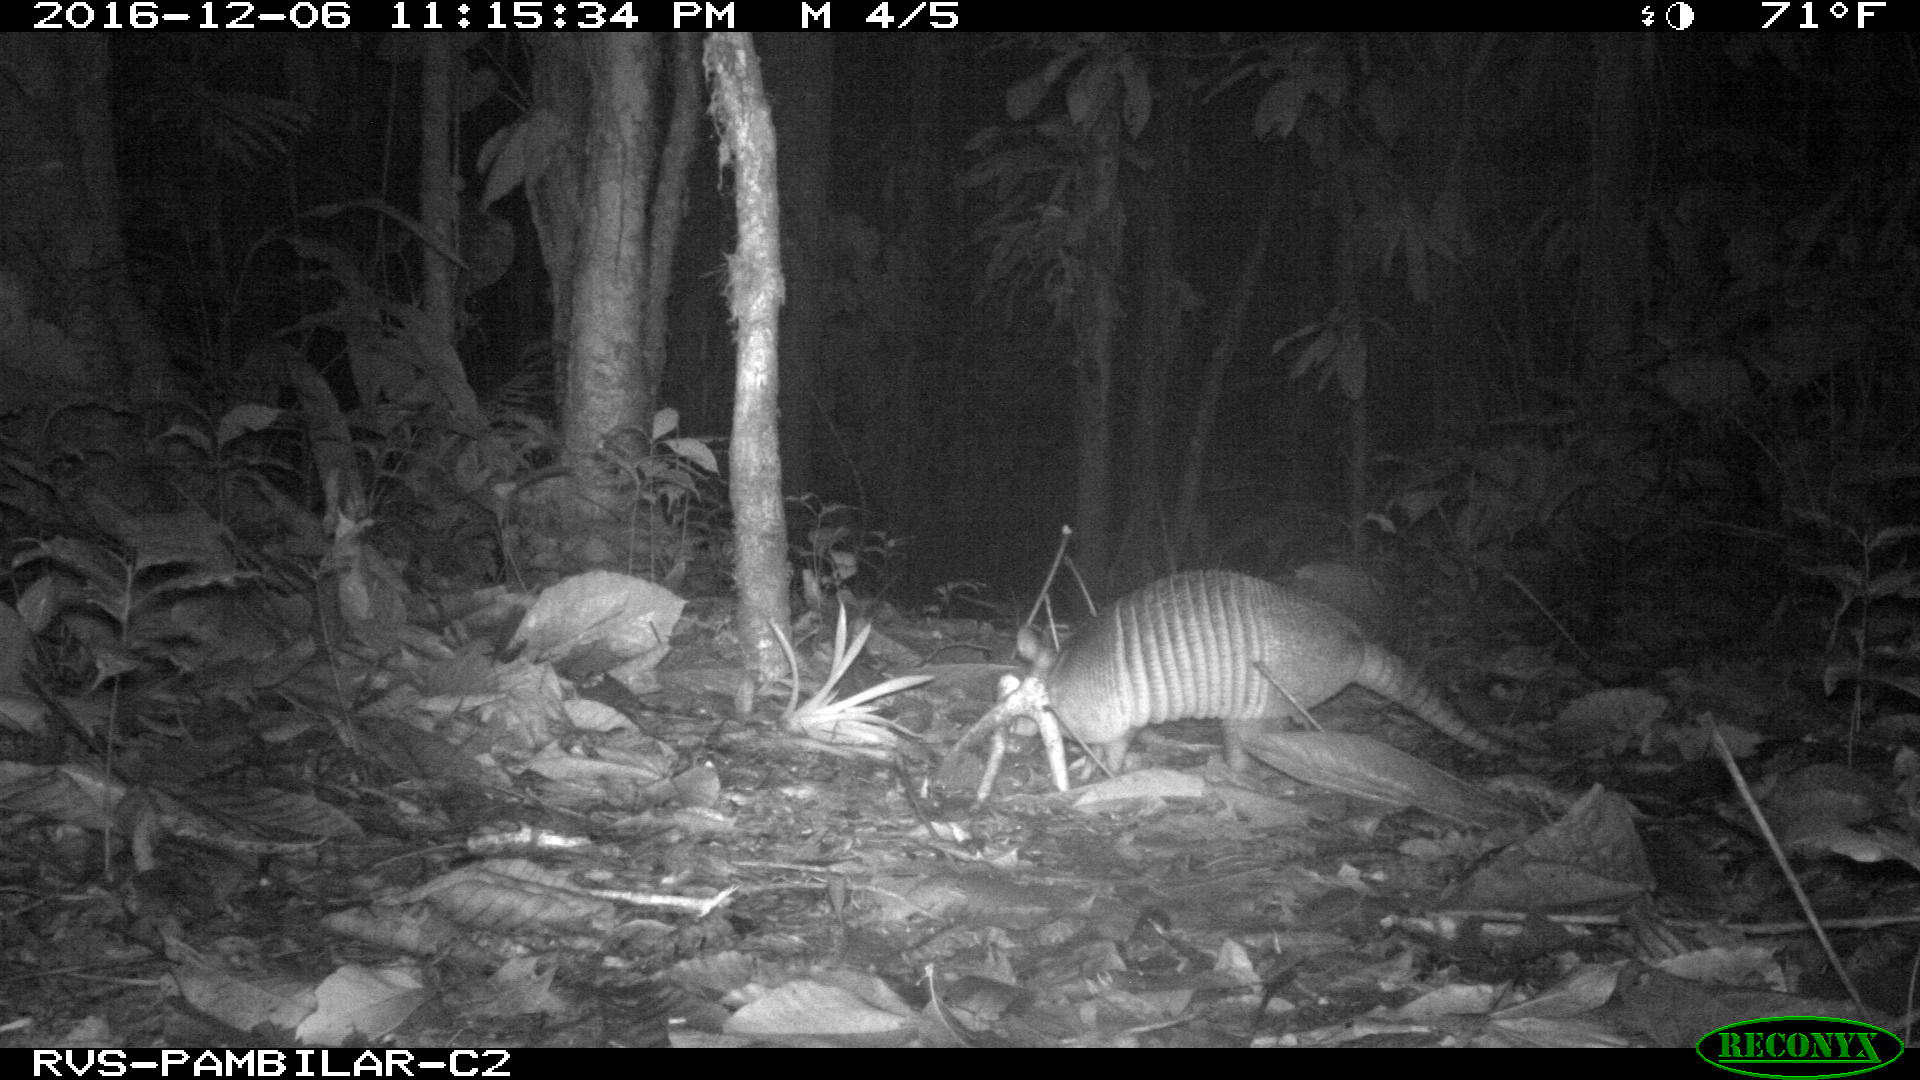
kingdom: Animalia
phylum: Chordata
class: Mammalia
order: Cingulata
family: Dasypodidae
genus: Dasypus
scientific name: Dasypus novemcinctus
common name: Nine-banded armadillo
